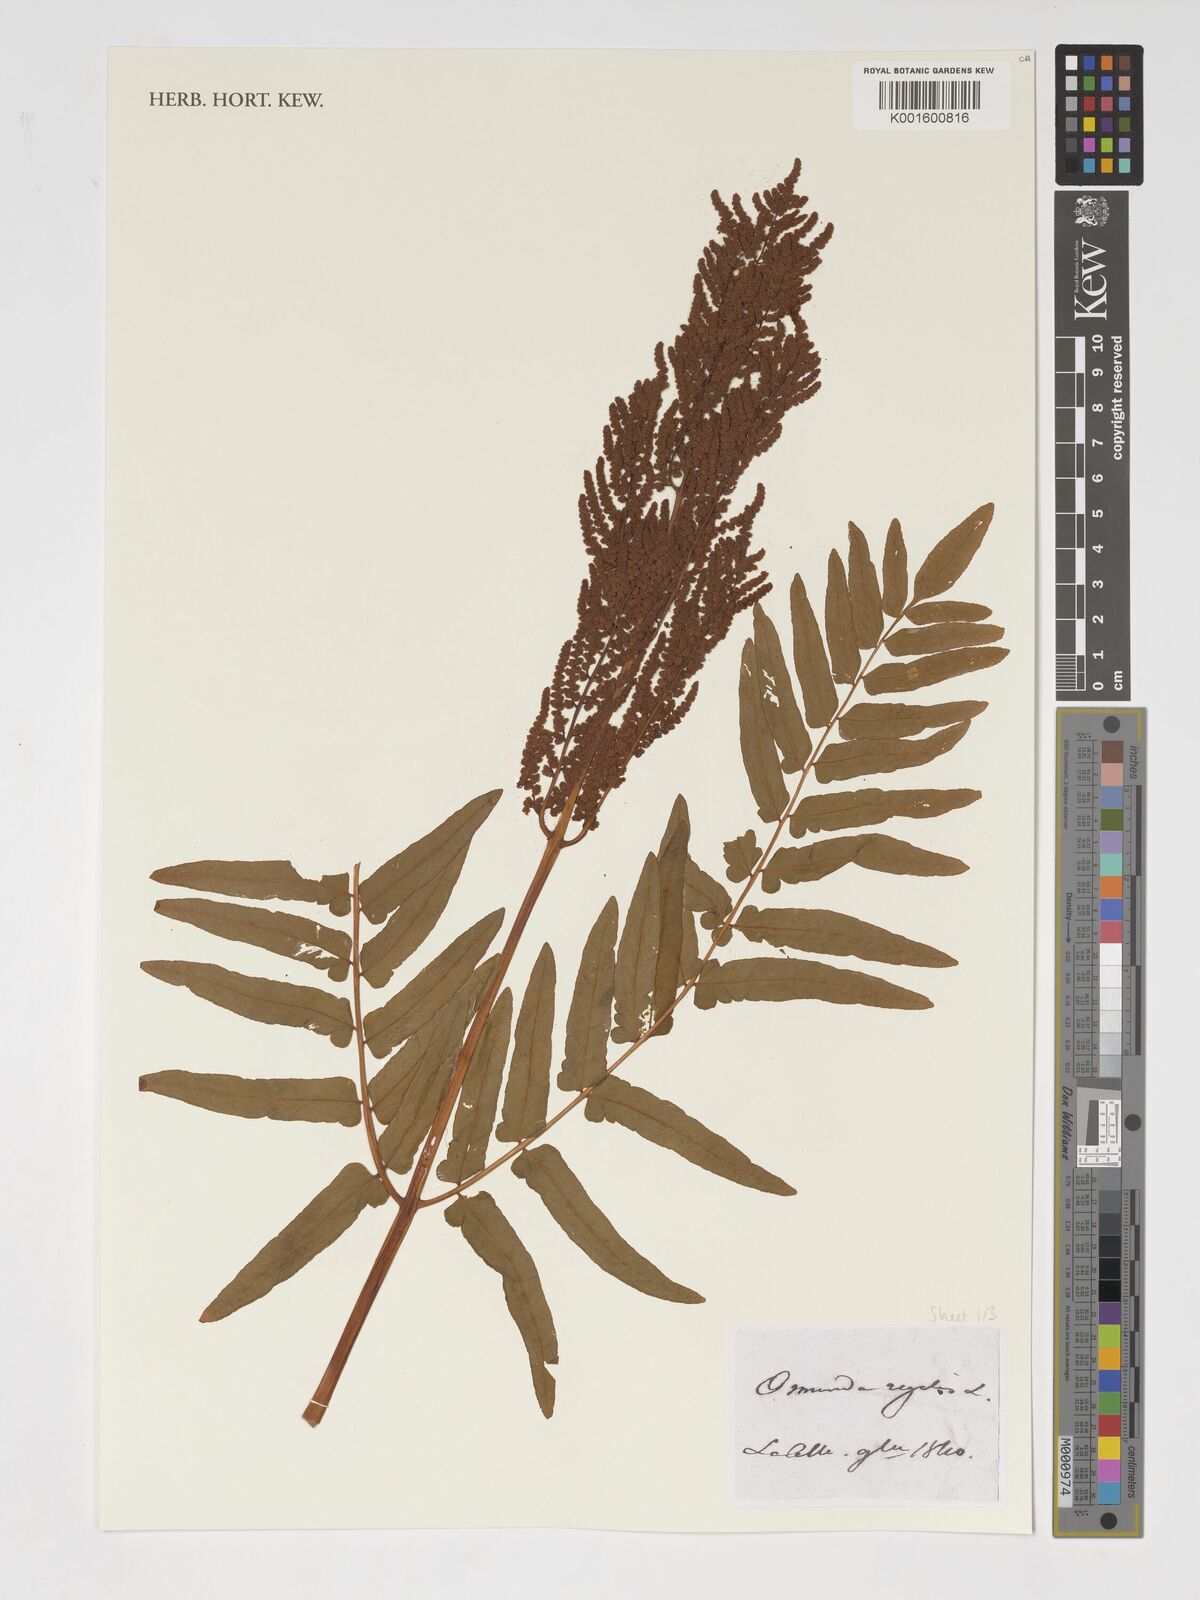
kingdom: Plantae
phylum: Tracheophyta
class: Polypodiopsida
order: Osmundales
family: Osmundaceae
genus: Osmunda
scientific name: Osmunda regalis
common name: Royal fern
